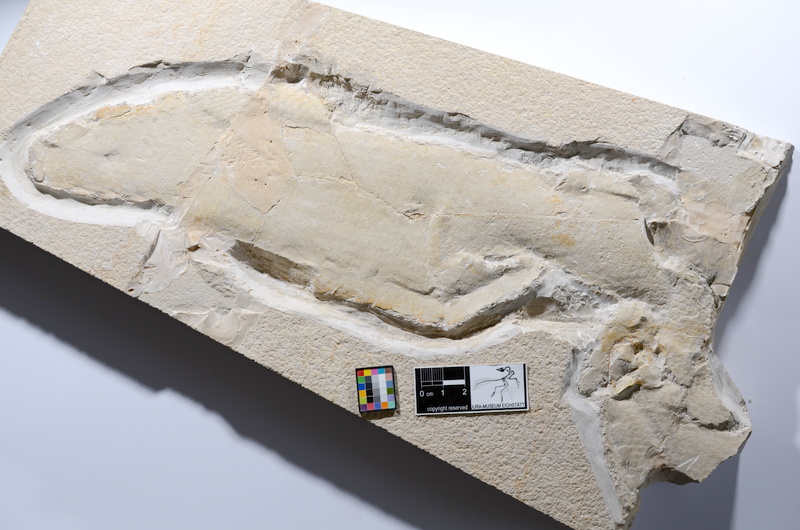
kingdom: Animalia
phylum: Chordata
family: Ankylophoridae
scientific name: Ankylophoridae
